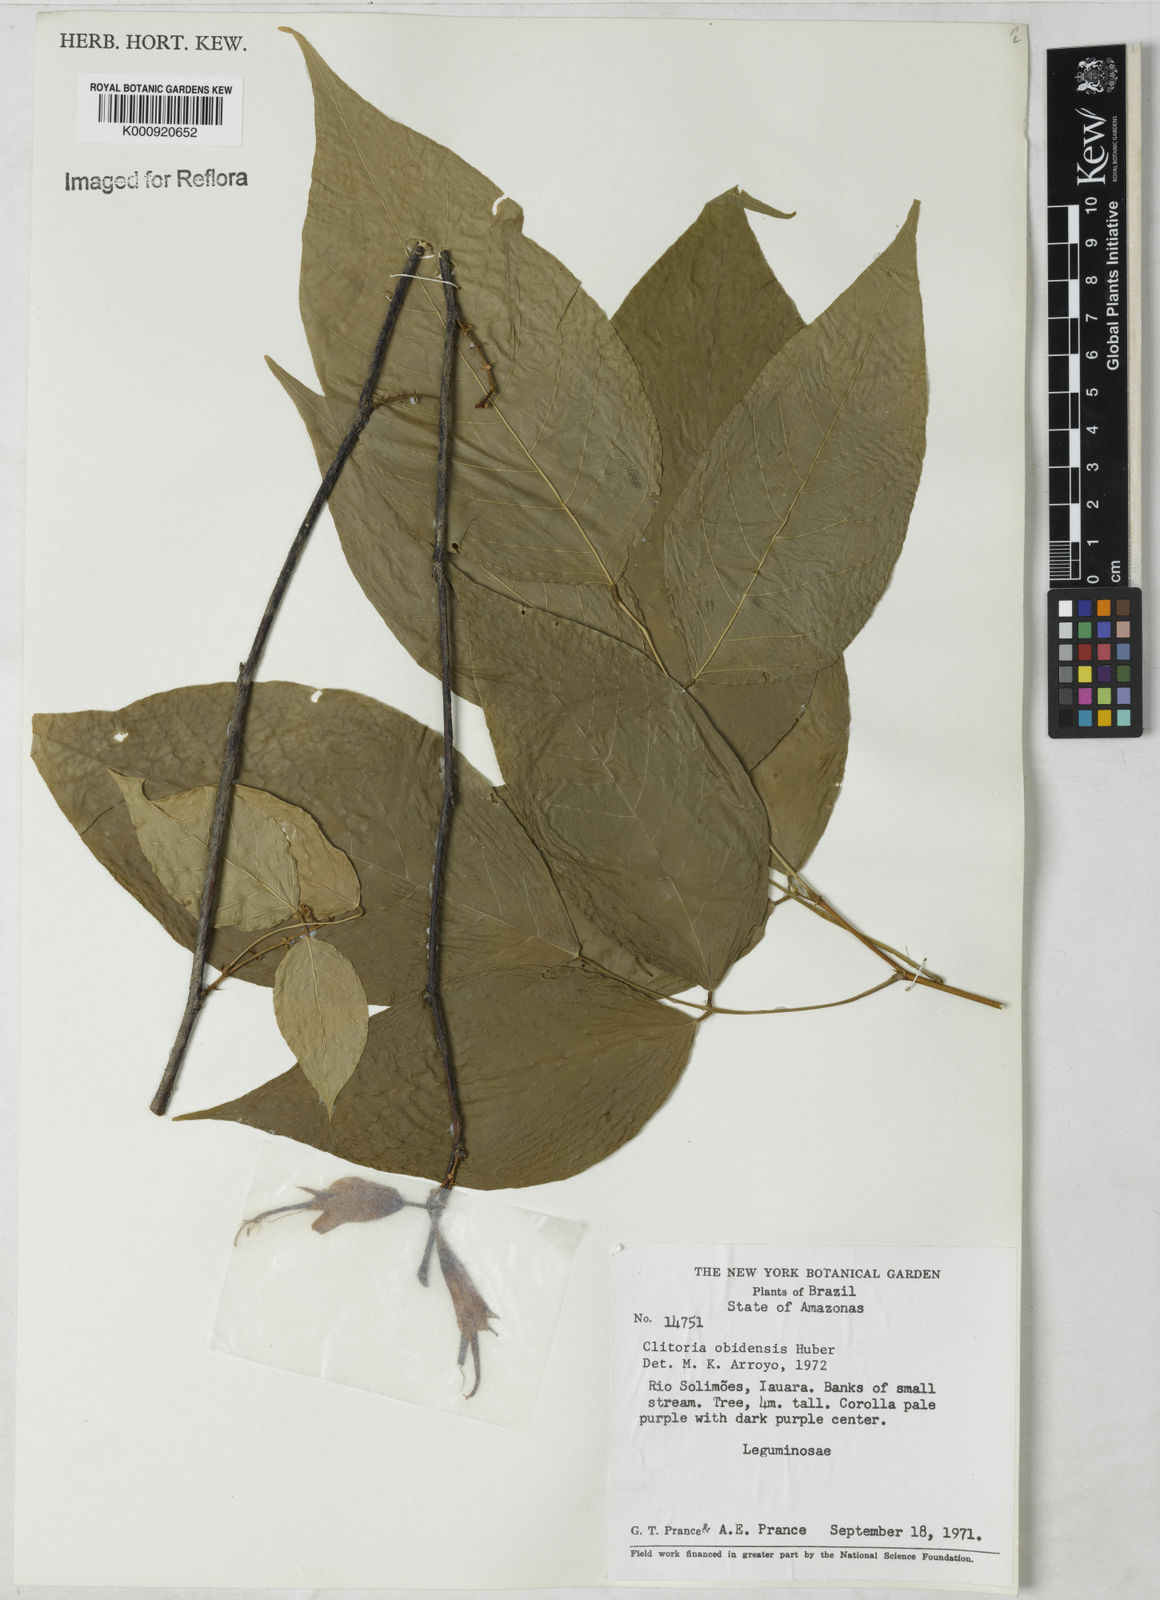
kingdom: Plantae
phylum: Tracheophyta
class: Magnoliopsida
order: Fabales
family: Fabaceae
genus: Clitoria
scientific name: Clitoria obidensis
